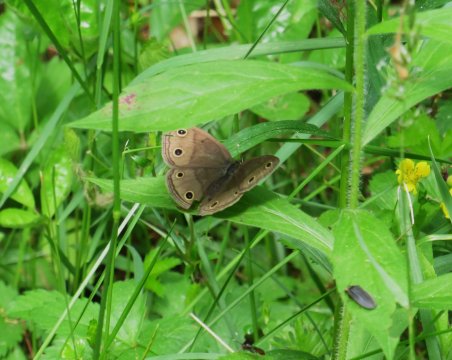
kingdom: Animalia
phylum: Arthropoda
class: Insecta
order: Lepidoptera
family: Nymphalidae
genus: Euptychia
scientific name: Euptychia cymela
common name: Little Wood Satyr
